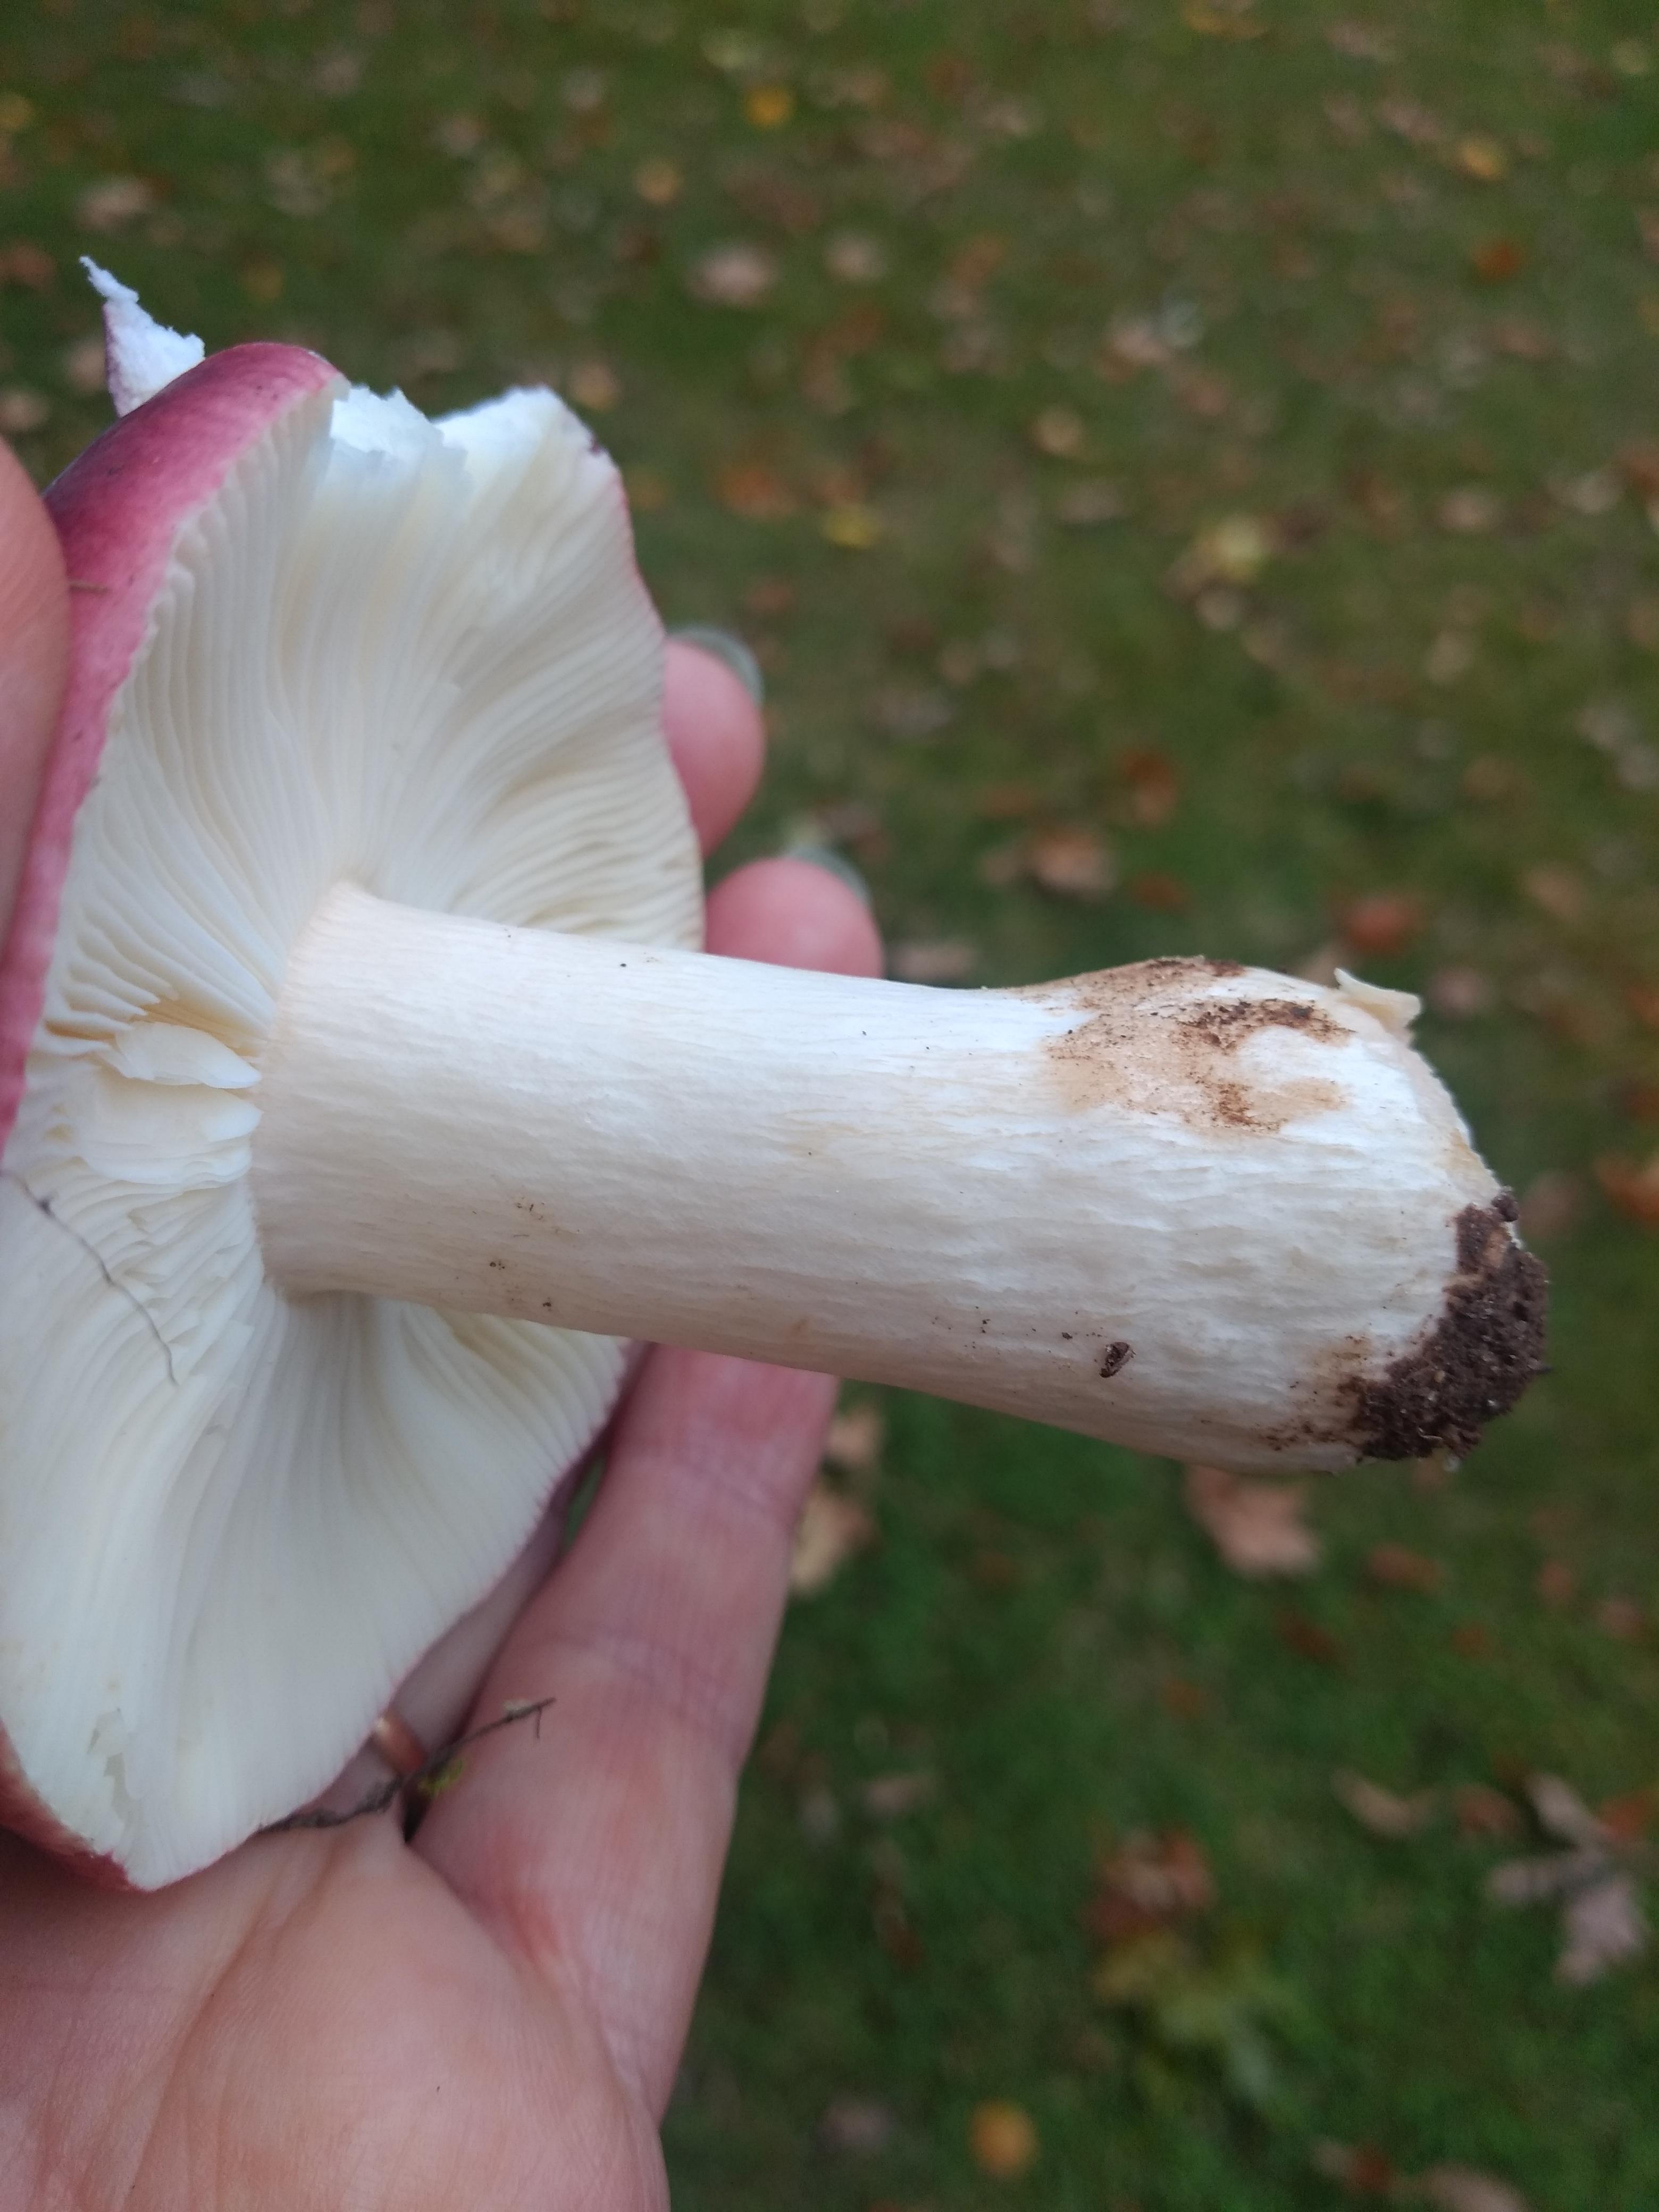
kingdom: Fungi
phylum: Basidiomycota
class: Agaricomycetes
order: Russulales
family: Russulaceae
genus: Russula
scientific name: Russula
